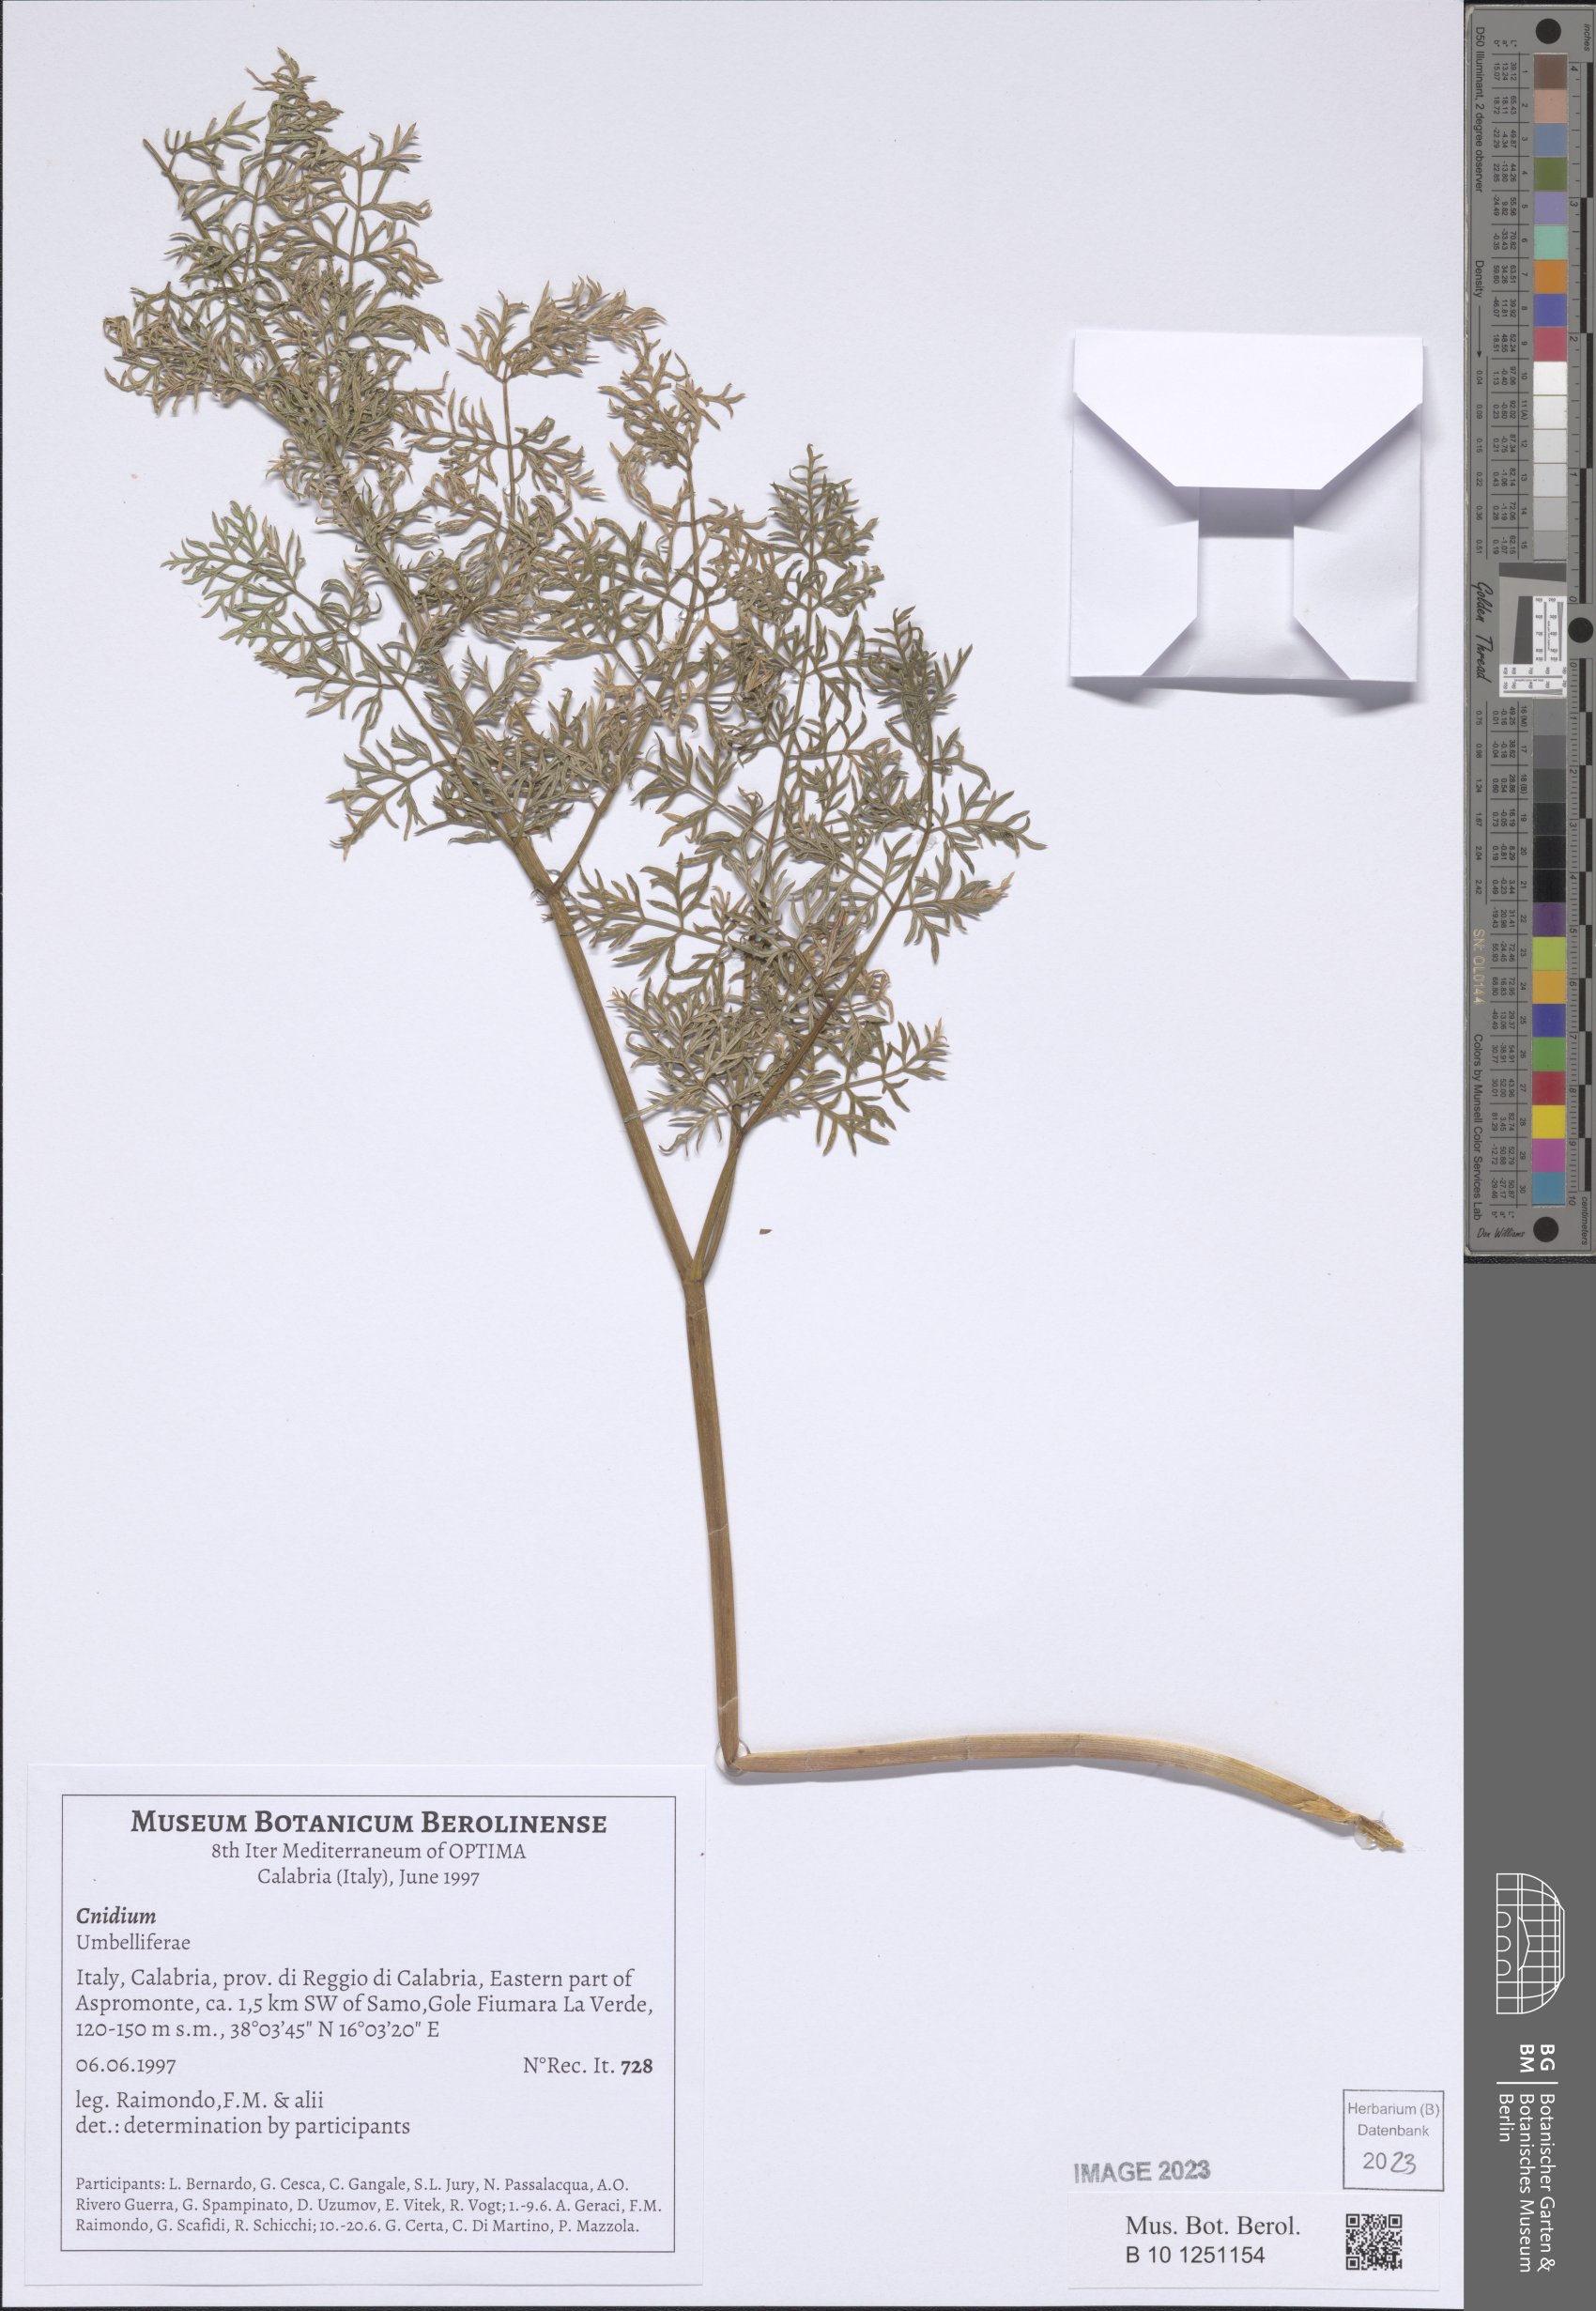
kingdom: Plantae
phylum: Tracheophyta
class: Magnoliopsida
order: Apiales
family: Apiaceae
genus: Cnidium
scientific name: Cnidium
